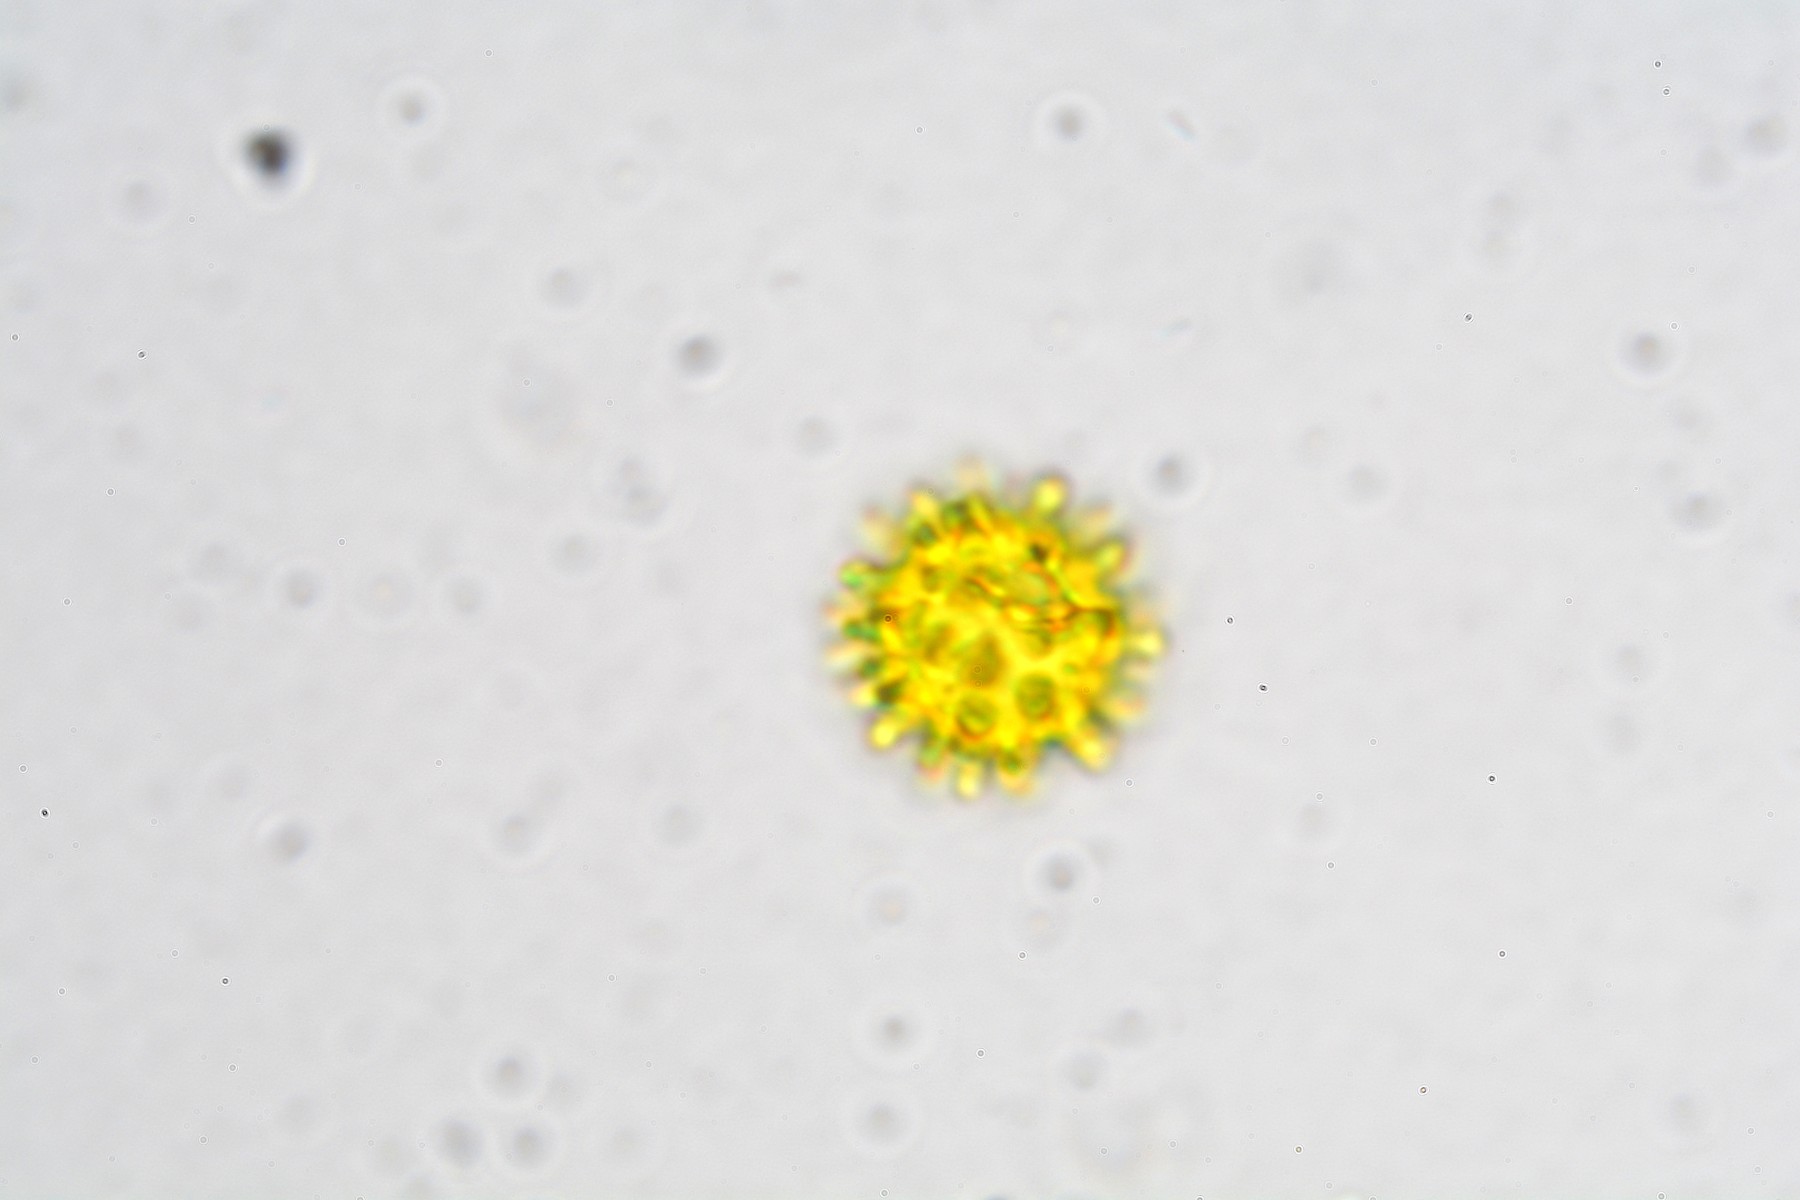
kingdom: Fungi
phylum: Ascomycota
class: Sordariomycetes
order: Hypocreales
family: Hypocreaceae
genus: Sepedonium
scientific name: Sepedonium
